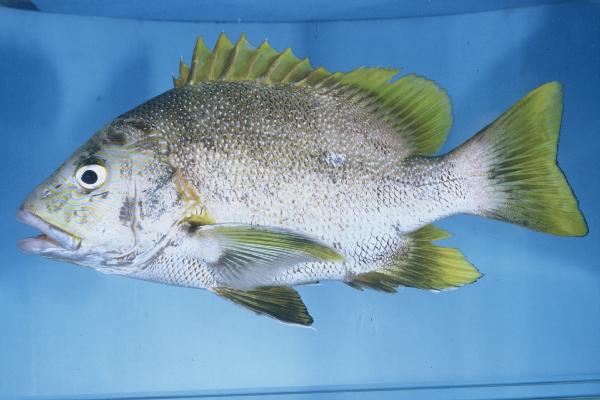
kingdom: Animalia
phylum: Chordata
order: Perciformes
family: Lutjanidae
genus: Lutjanus
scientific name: Lutjanus rivulatus
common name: Blubberlip snapper
